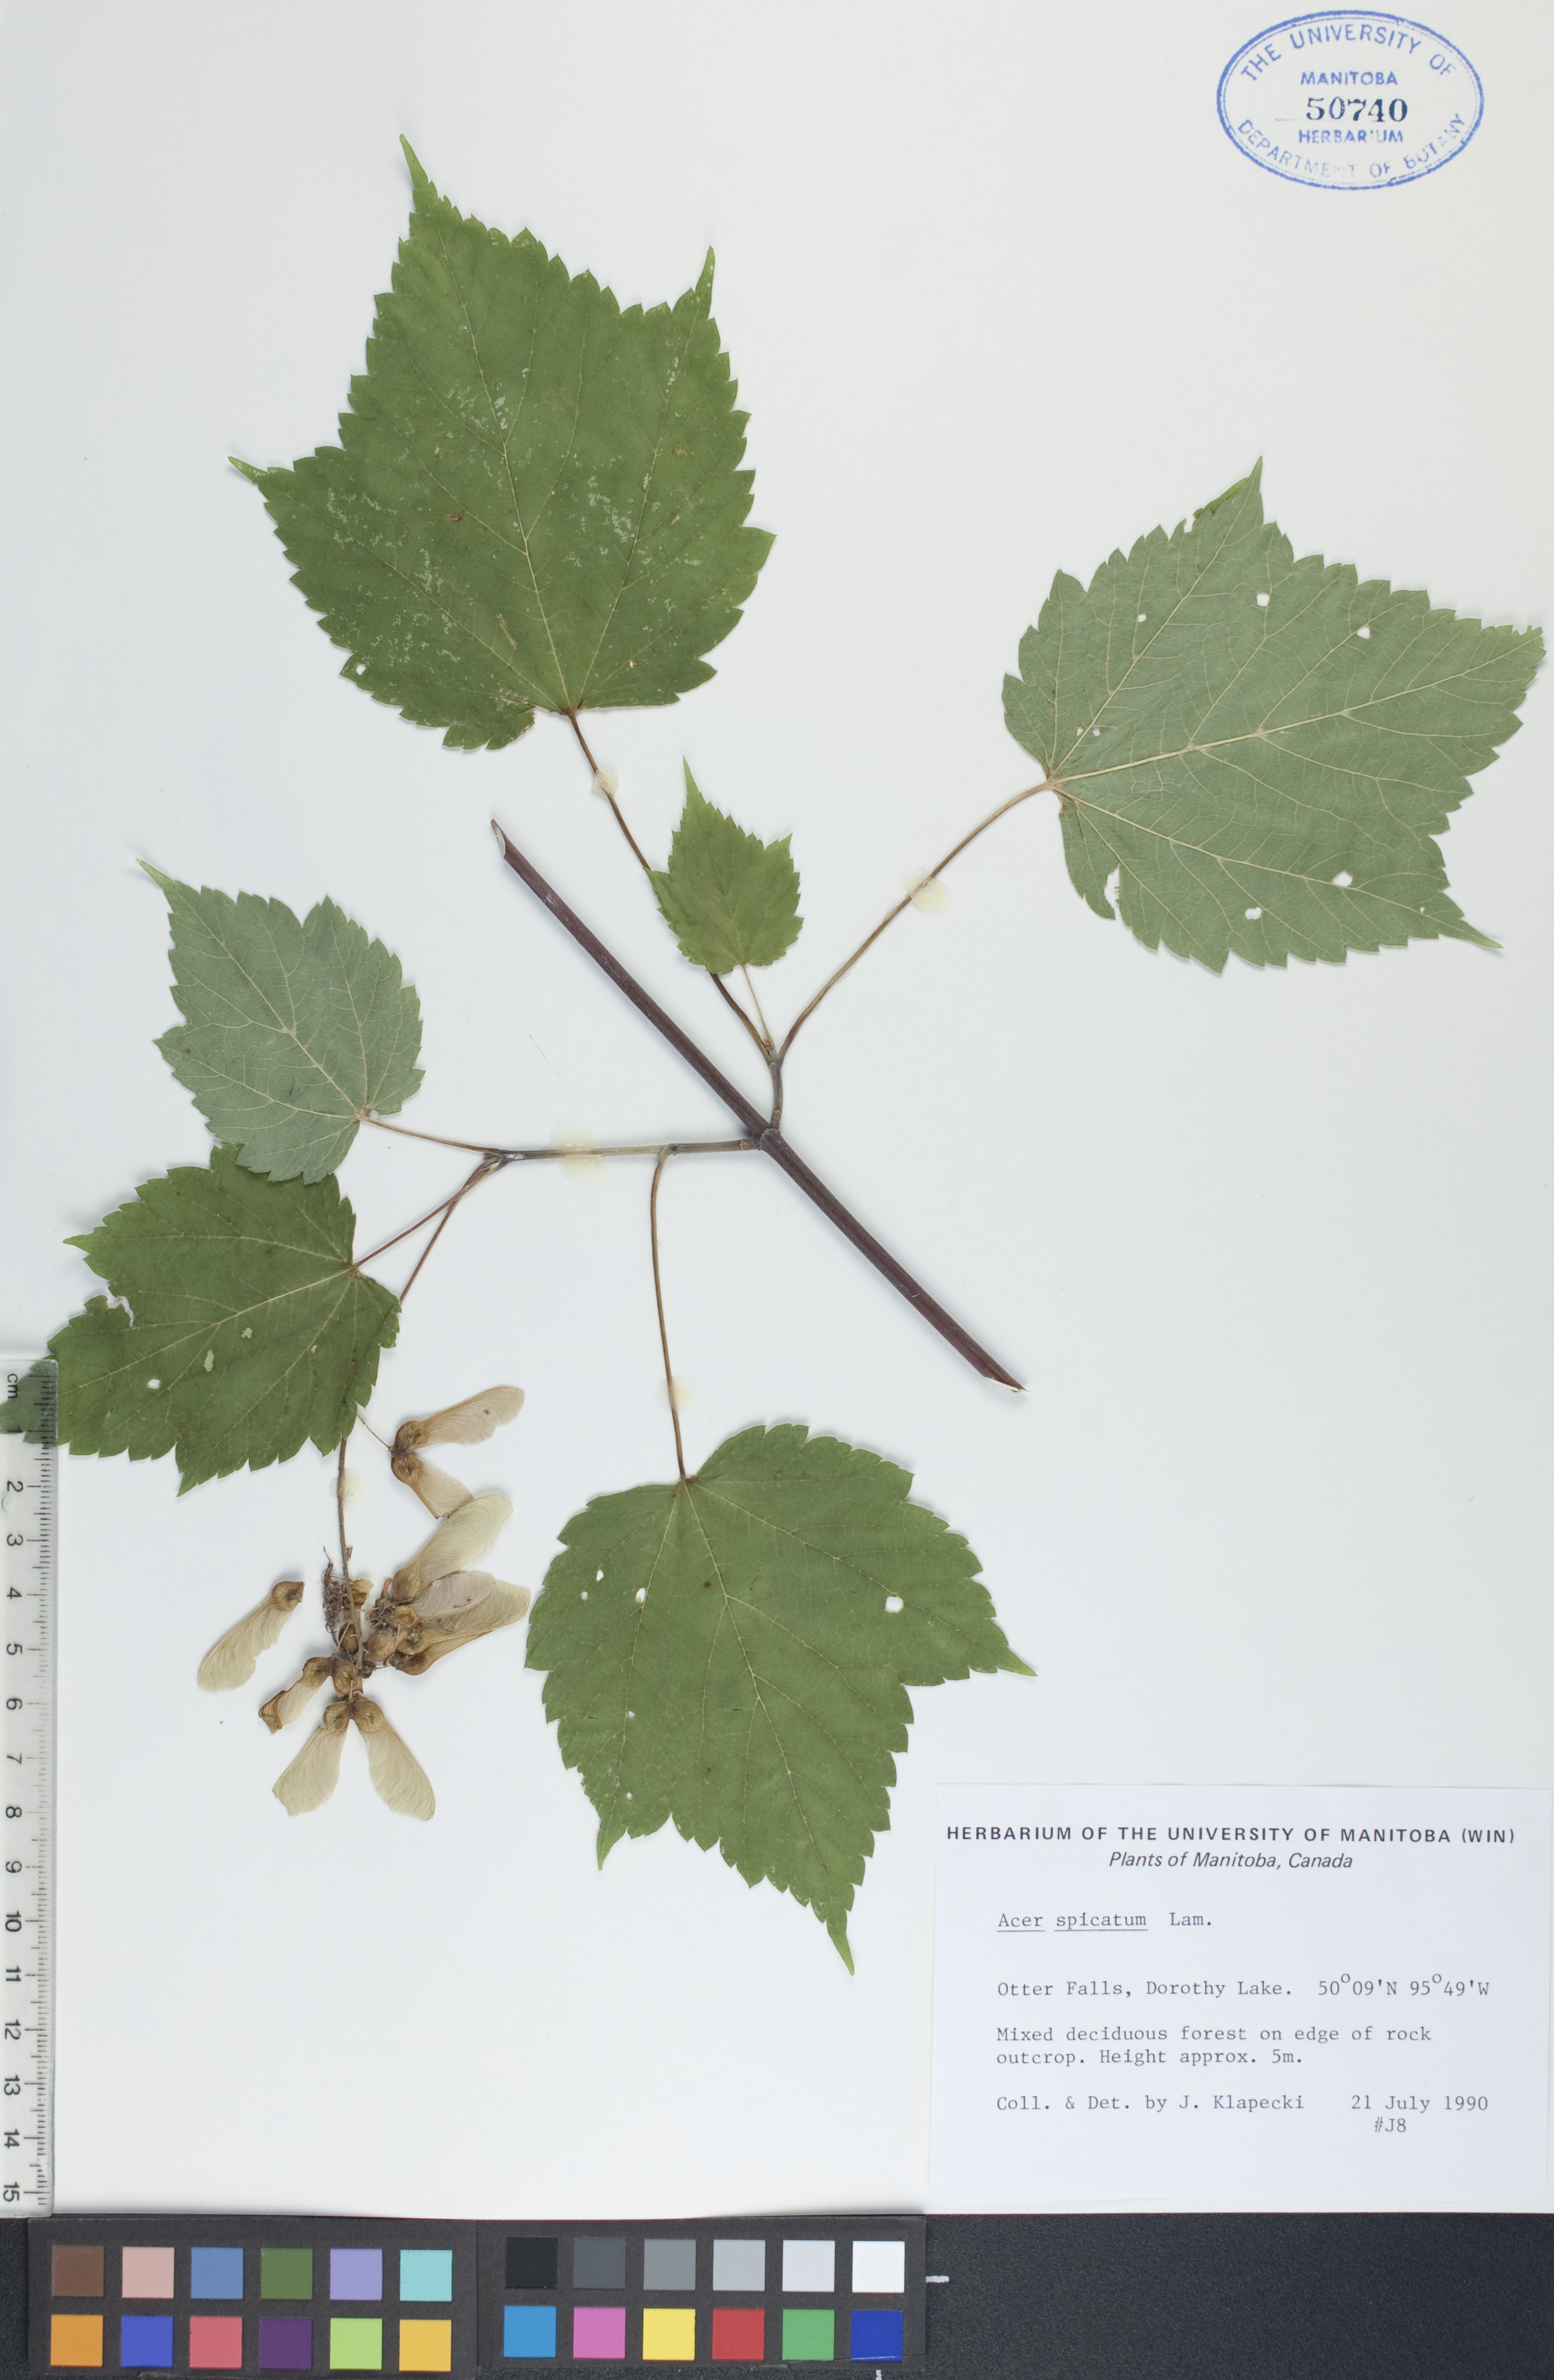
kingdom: Plantae
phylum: Tracheophyta
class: Magnoliopsida
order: Sapindales
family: Sapindaceae
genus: Acer
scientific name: Acer spicatum
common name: Mountain maple
